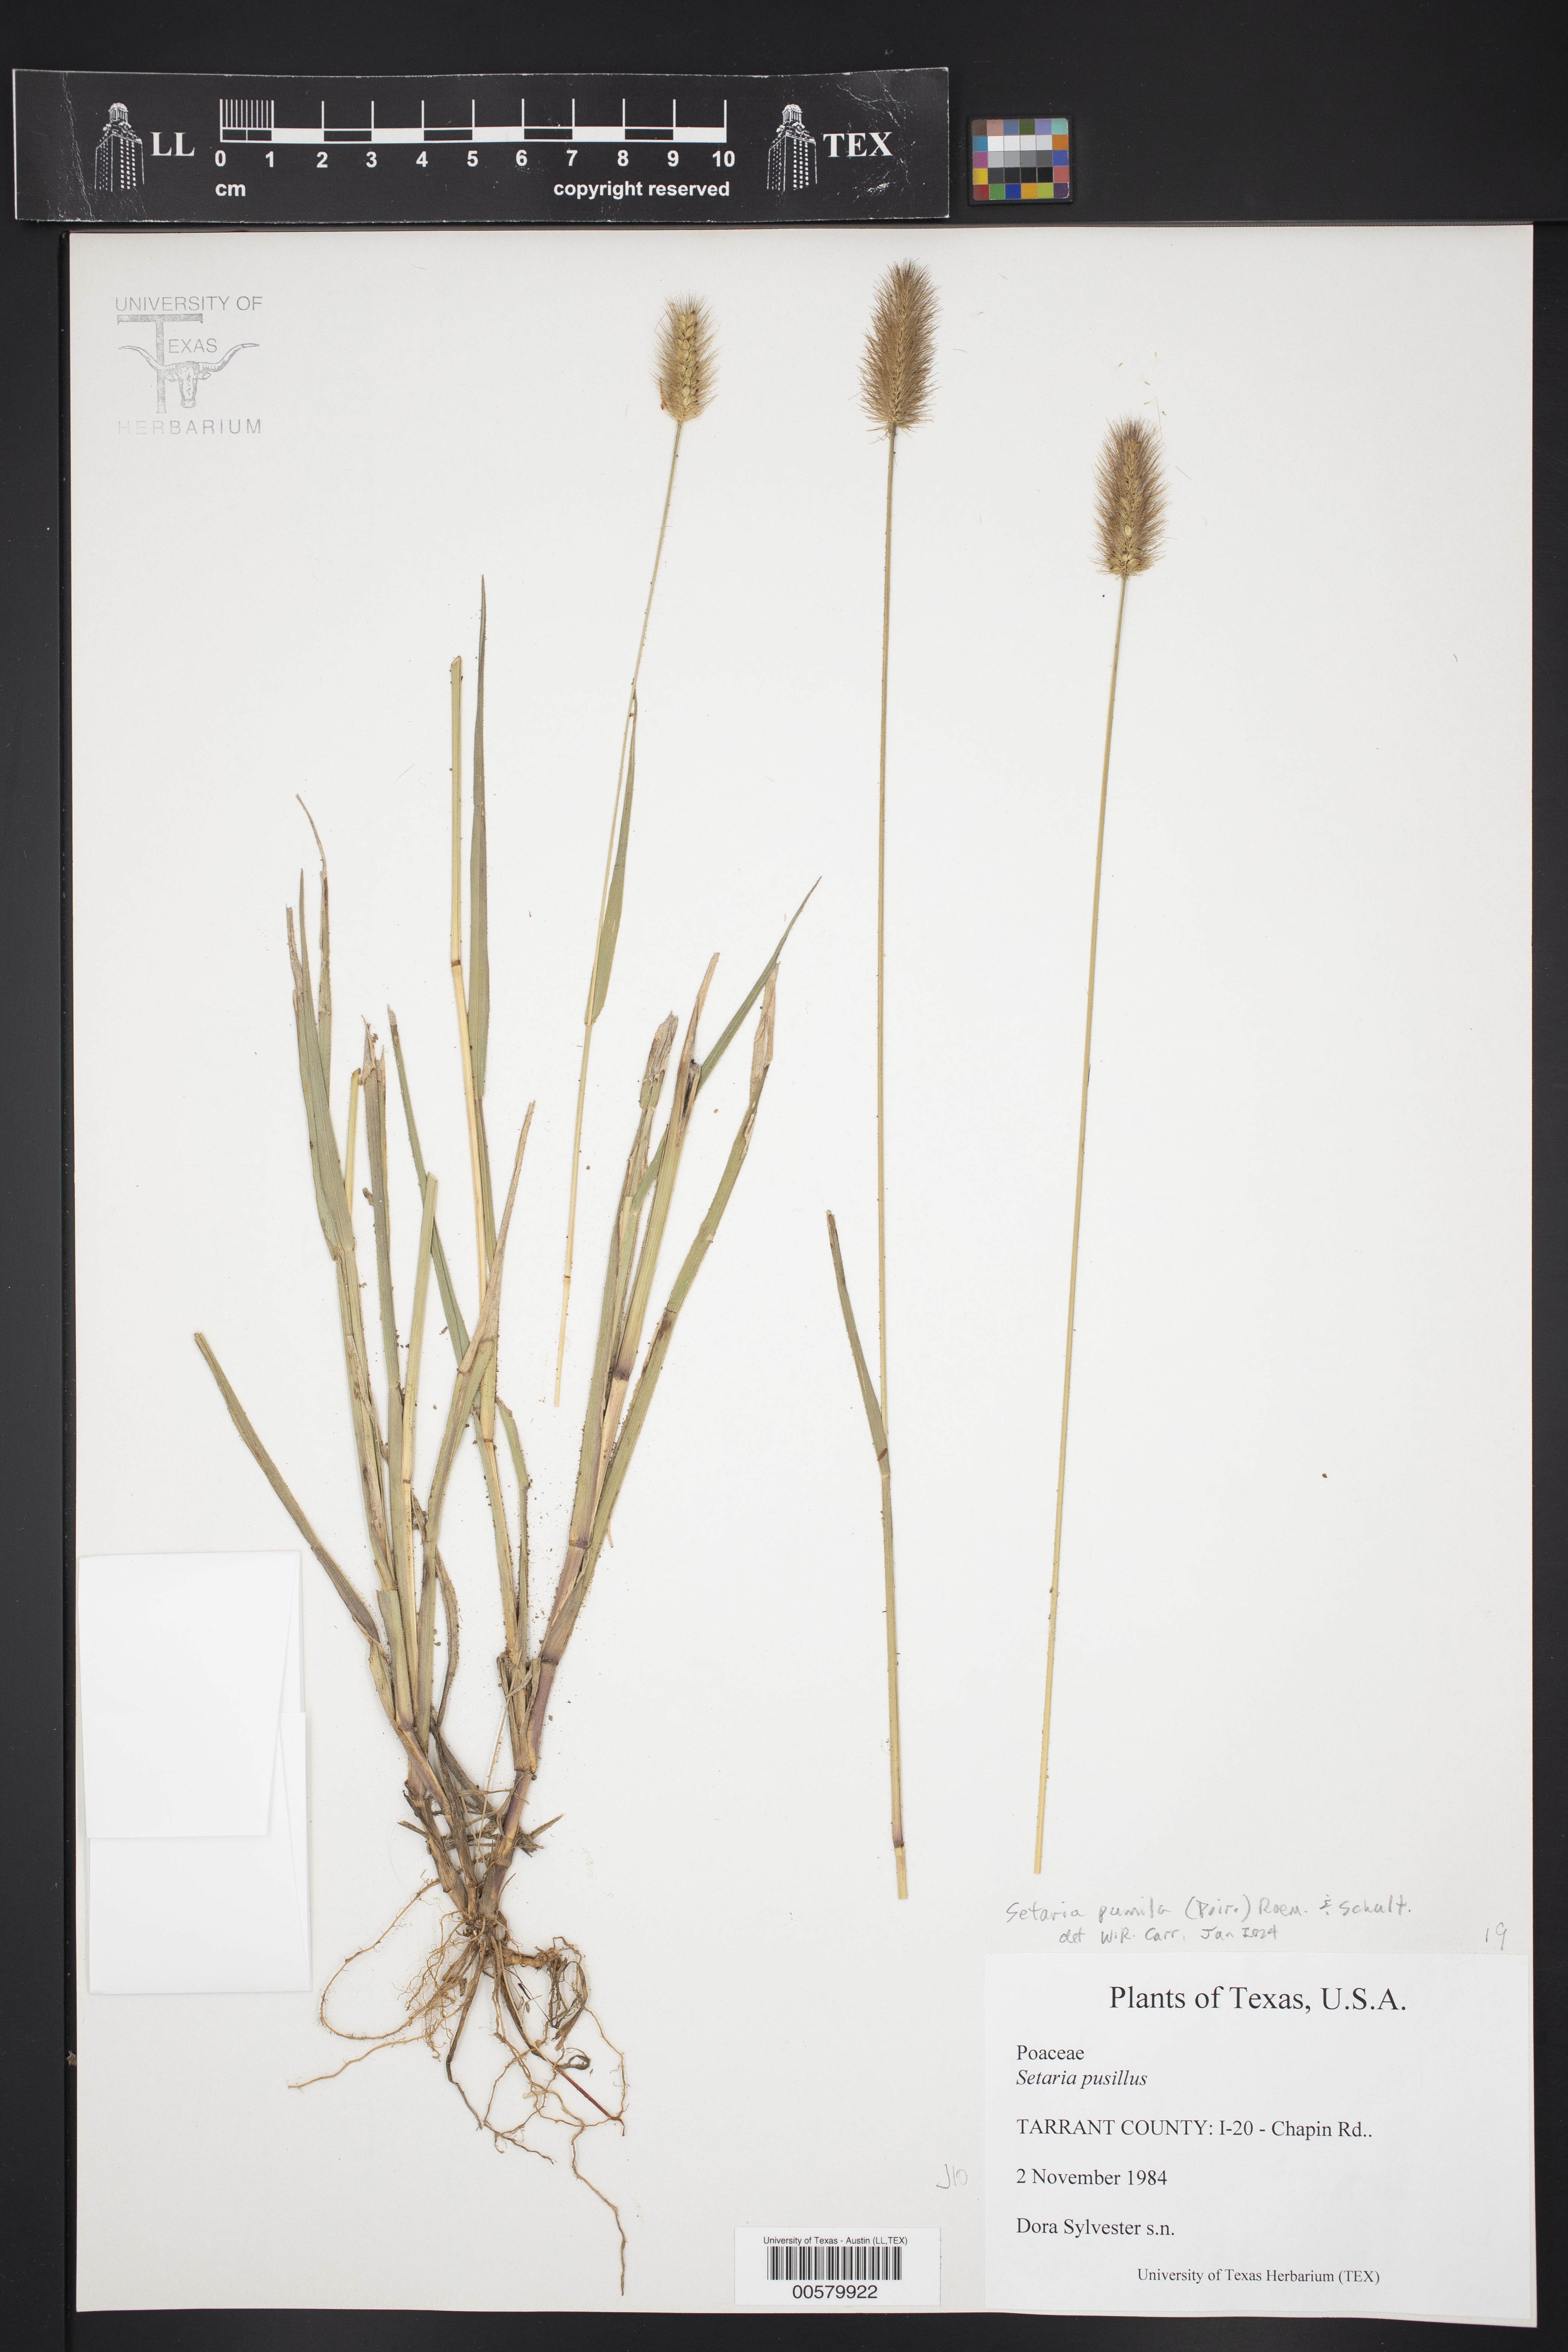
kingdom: Plantae
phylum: Tracheophyta
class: Liliopsida
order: Poales
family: Poaceae
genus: Setaria
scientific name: Setaria pumila
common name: Yellow bristle-grass
